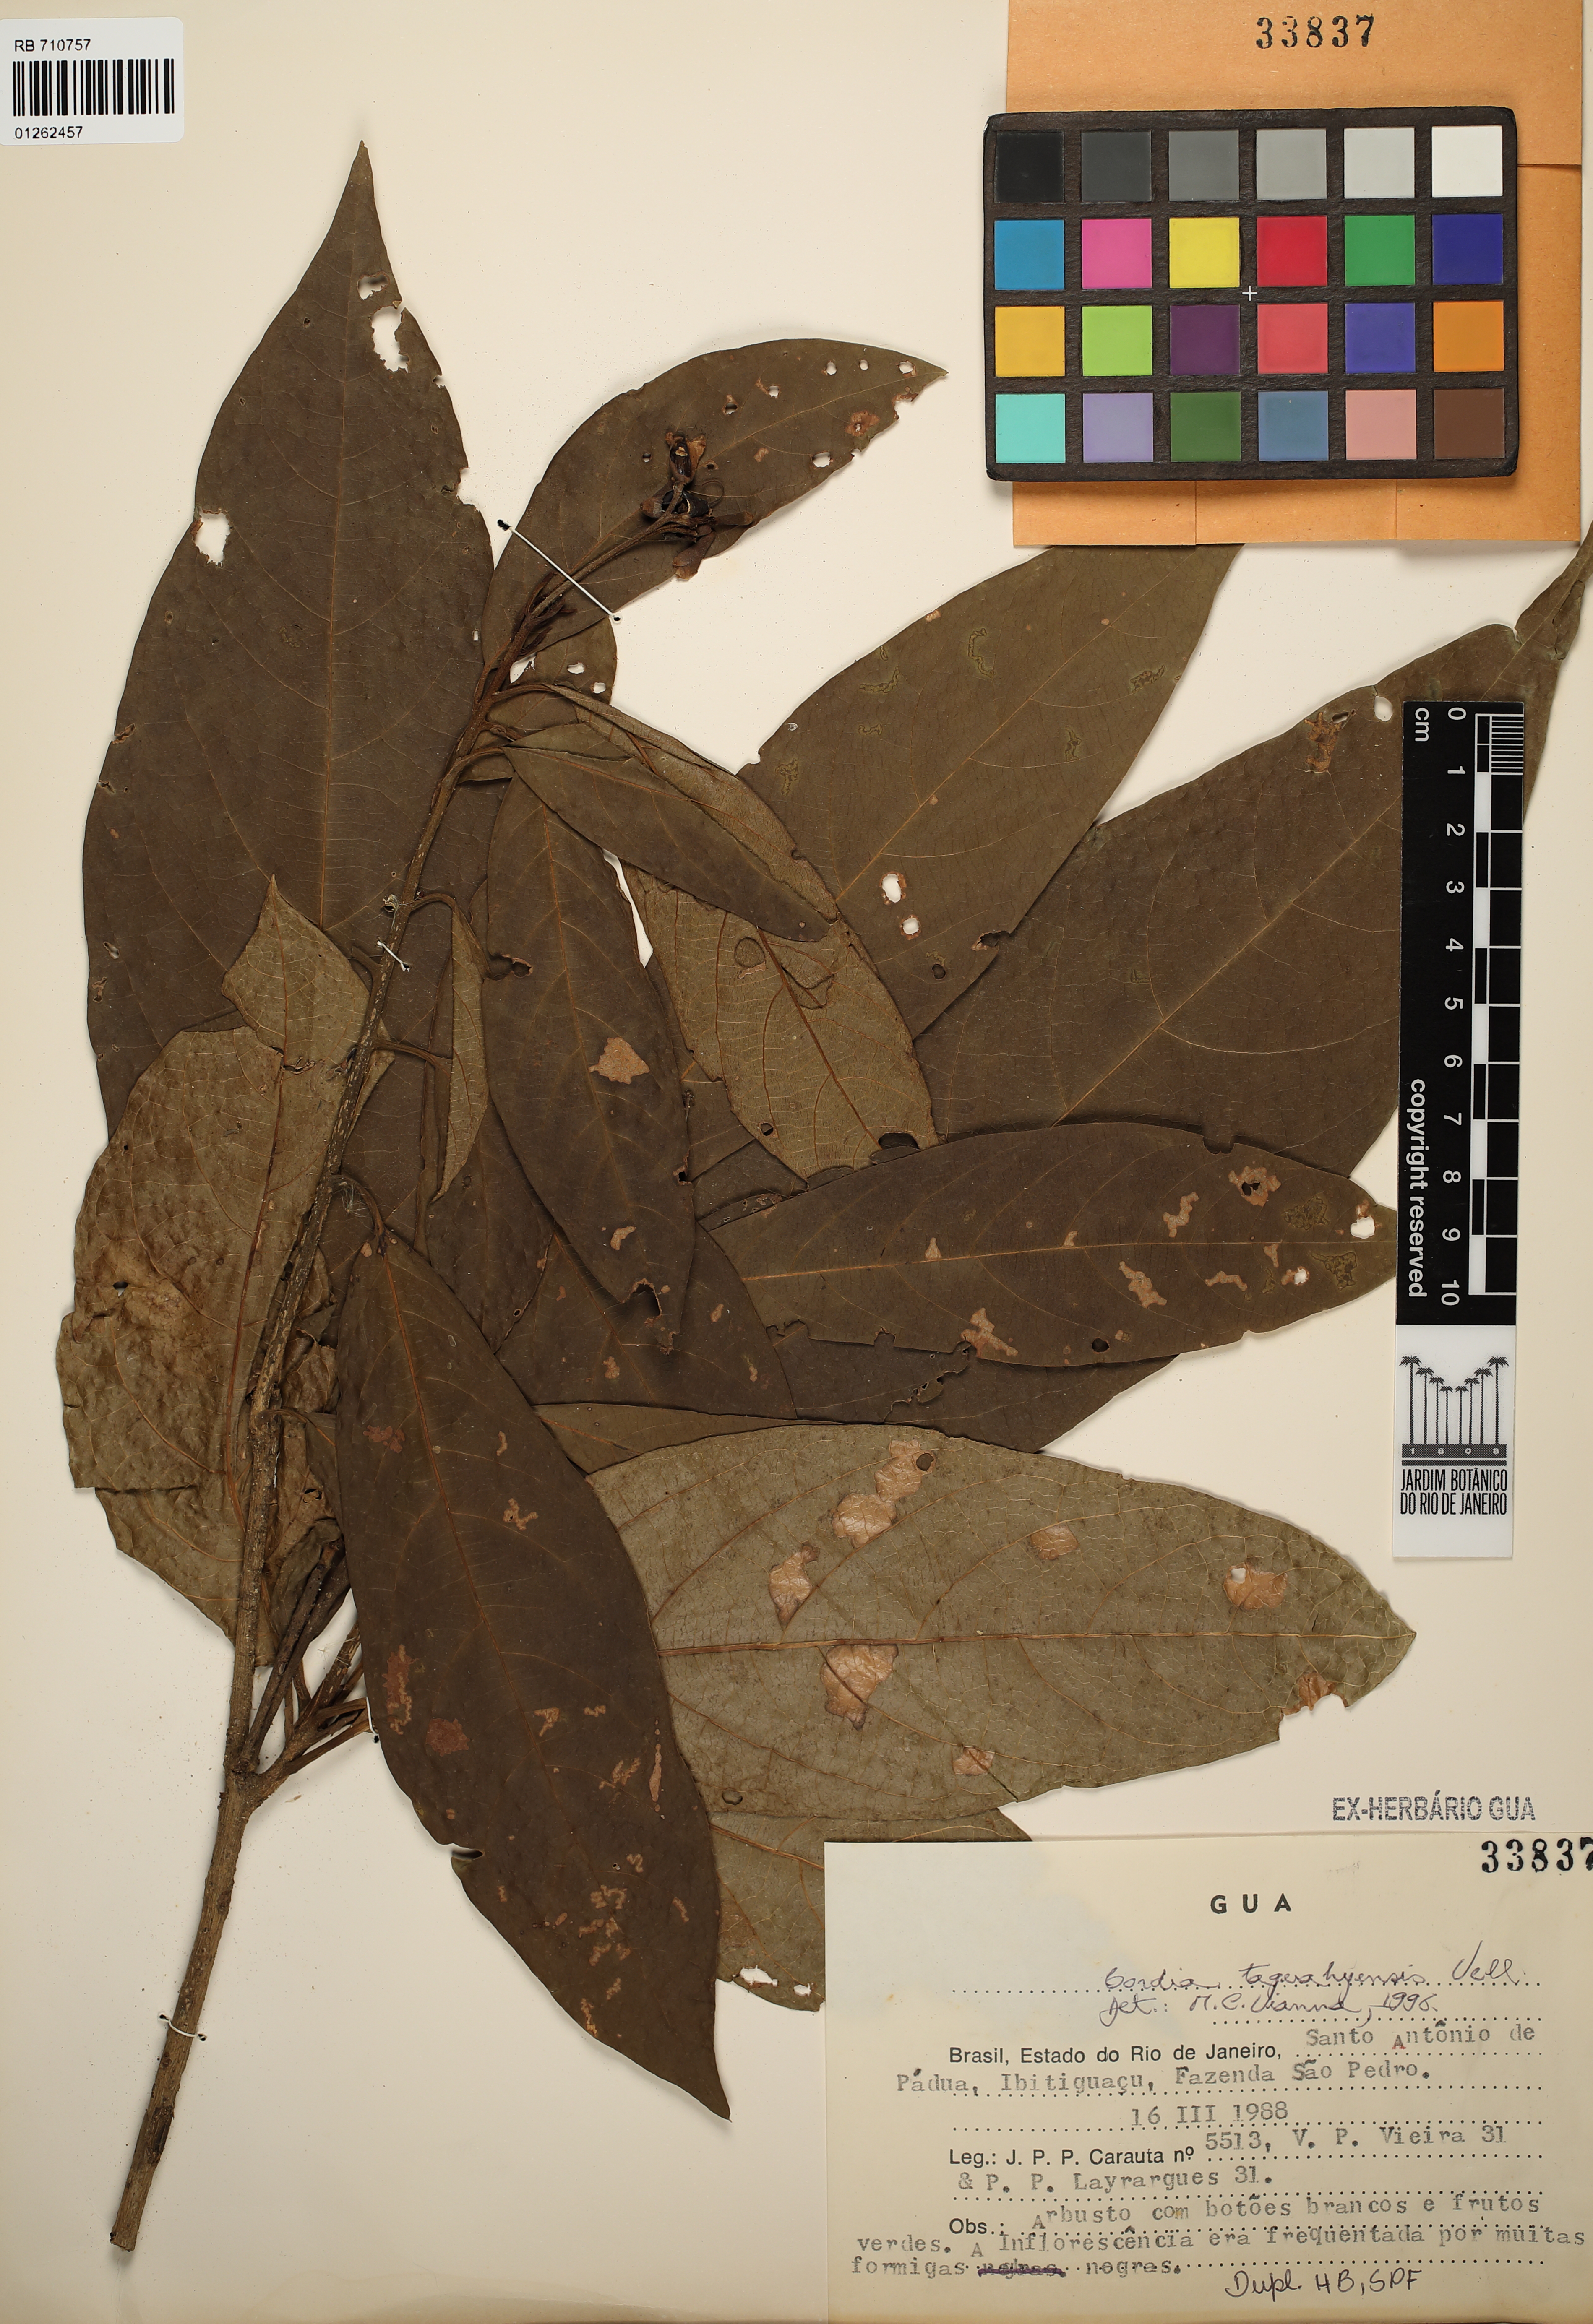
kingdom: Plantae
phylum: Tracheophyta
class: Magnoliopsida
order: Boraginales
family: Cordiaceae
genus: Cordia
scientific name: Cordia taguahuyensis
